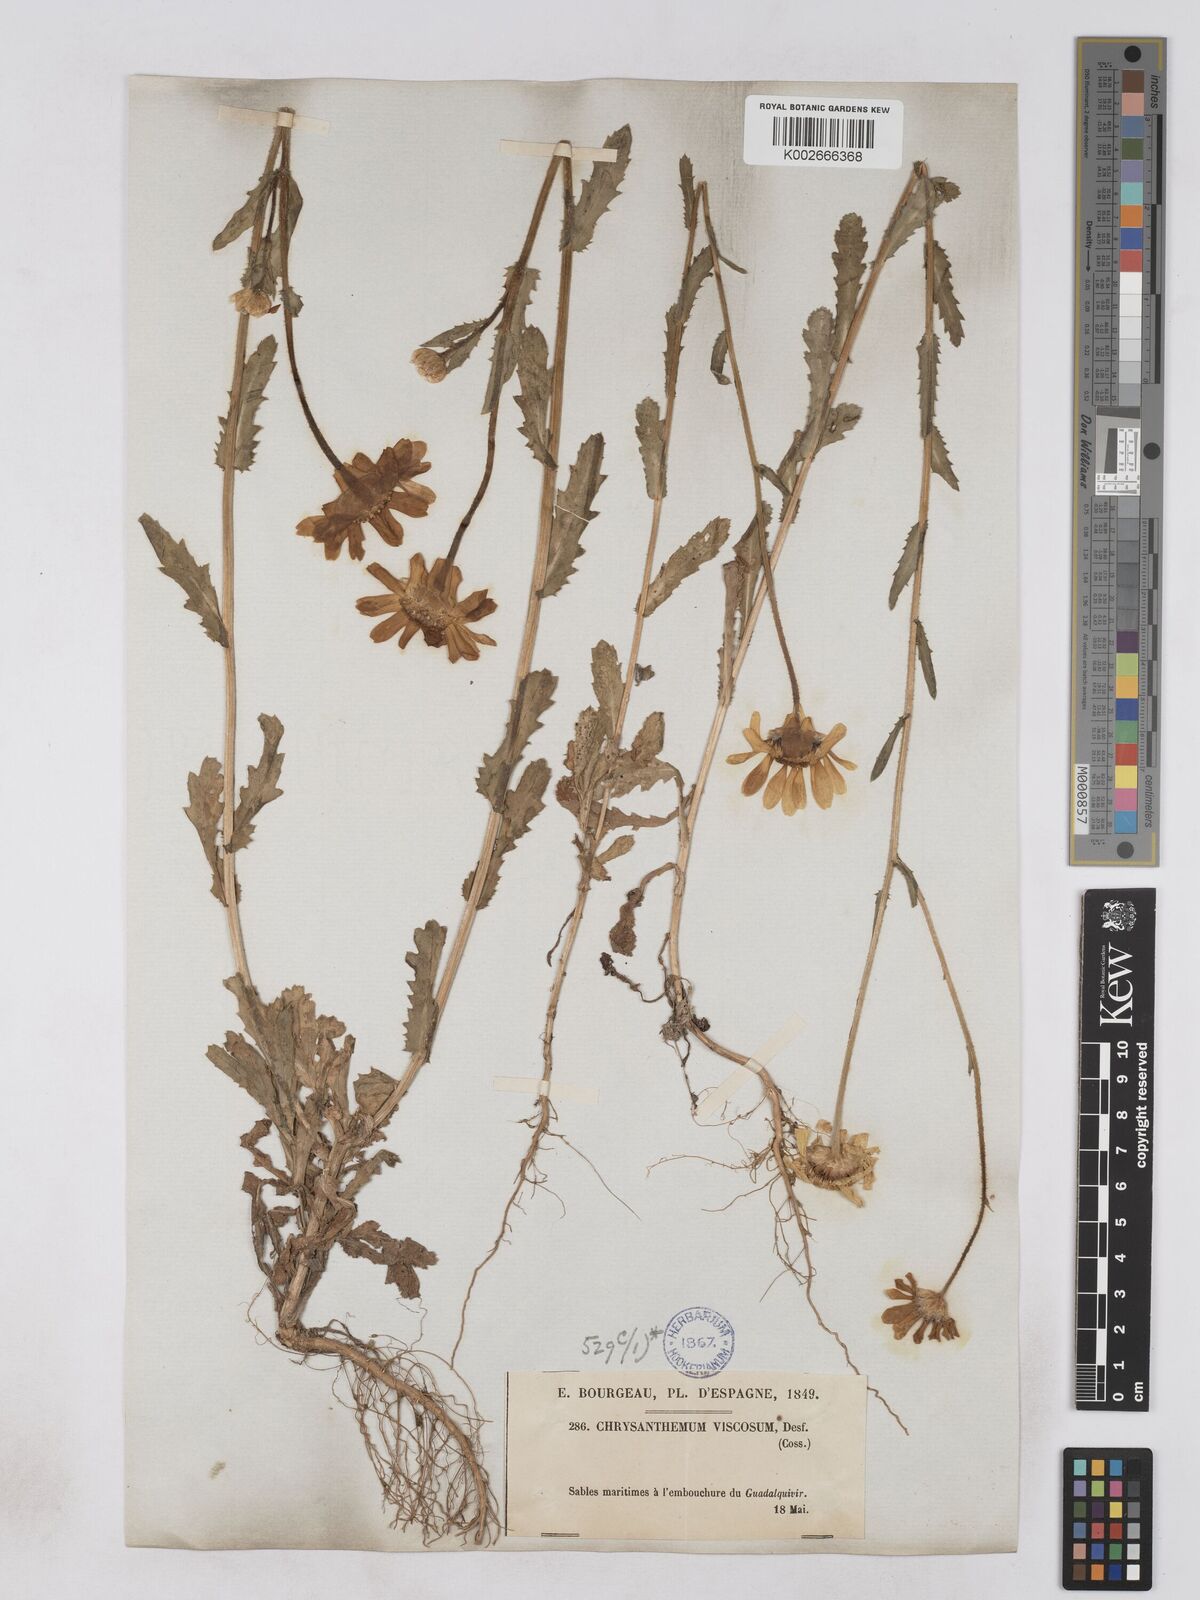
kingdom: Plantae
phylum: Tracheophyta
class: Magnoliopsida
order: Asterales
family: Asteraceae
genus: Heteranthemis
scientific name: Heteranthemis
